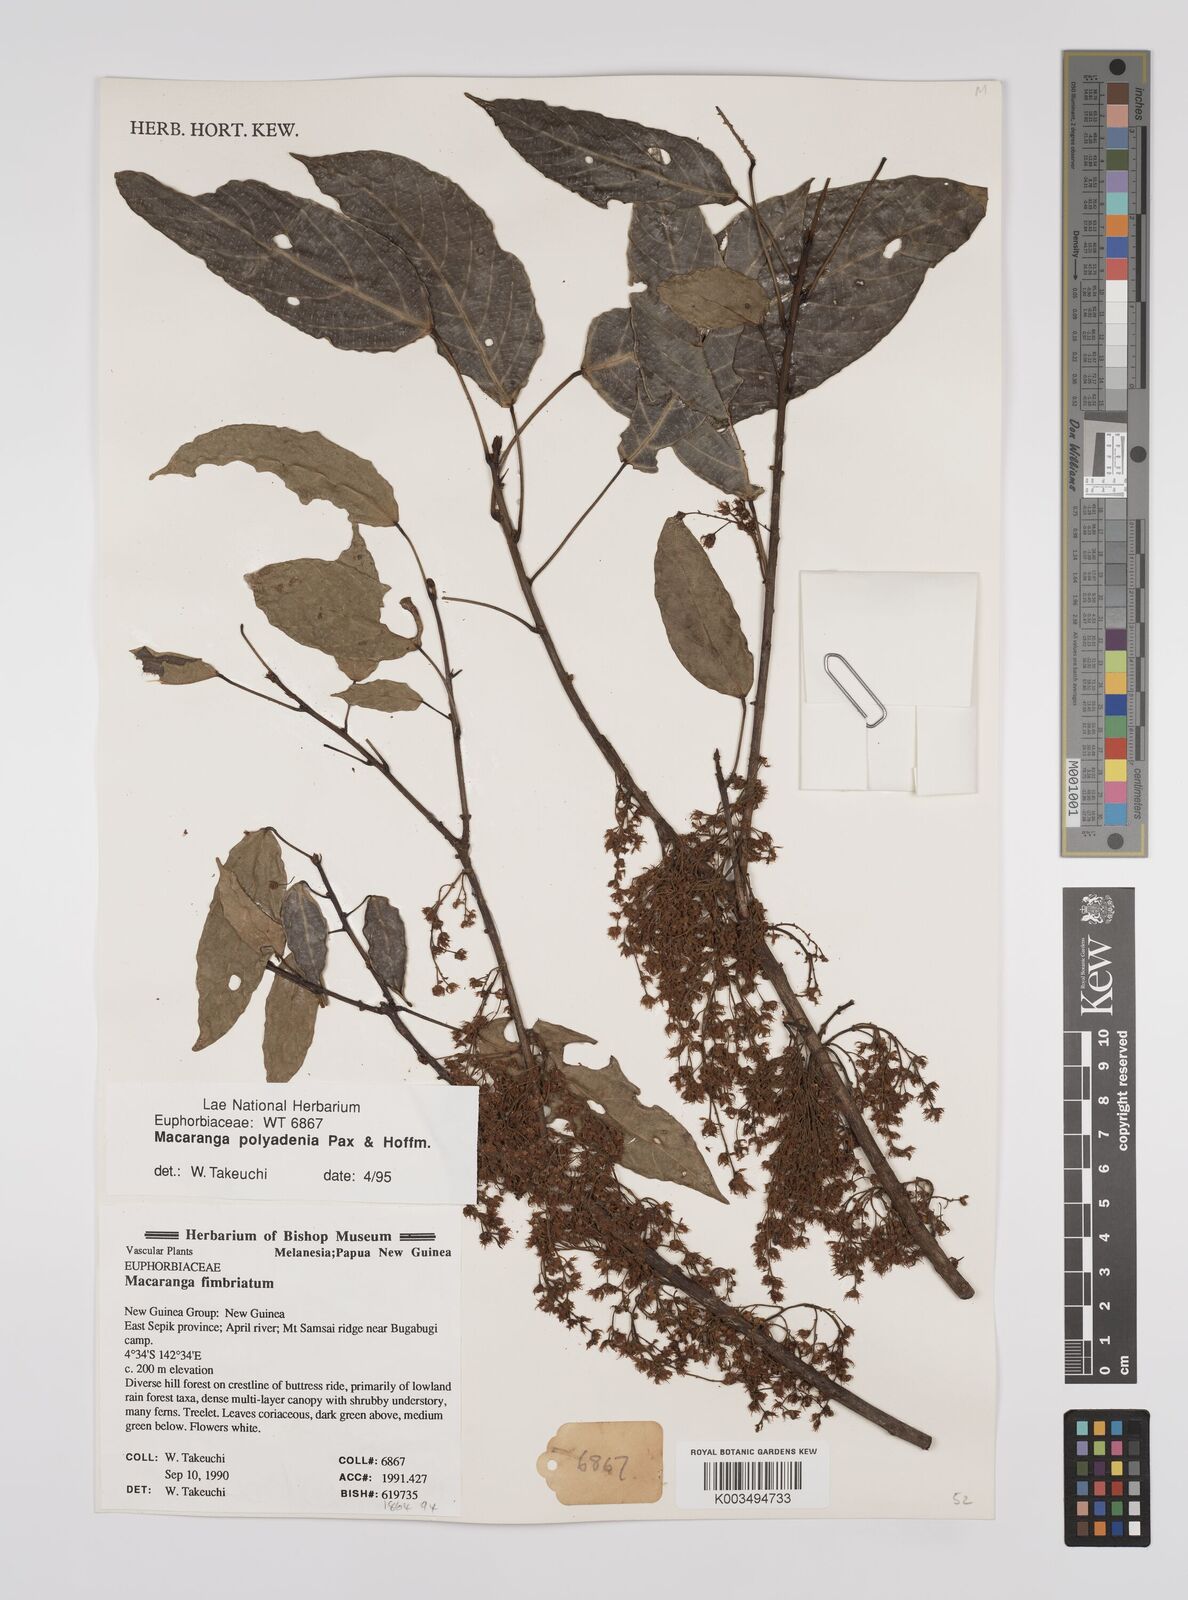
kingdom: Plantae
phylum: Tracheophyta
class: Magnoliopsida
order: Malpighiales
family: Euphorbiaceae
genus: Macaranga
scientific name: Macaranga polyadenia
